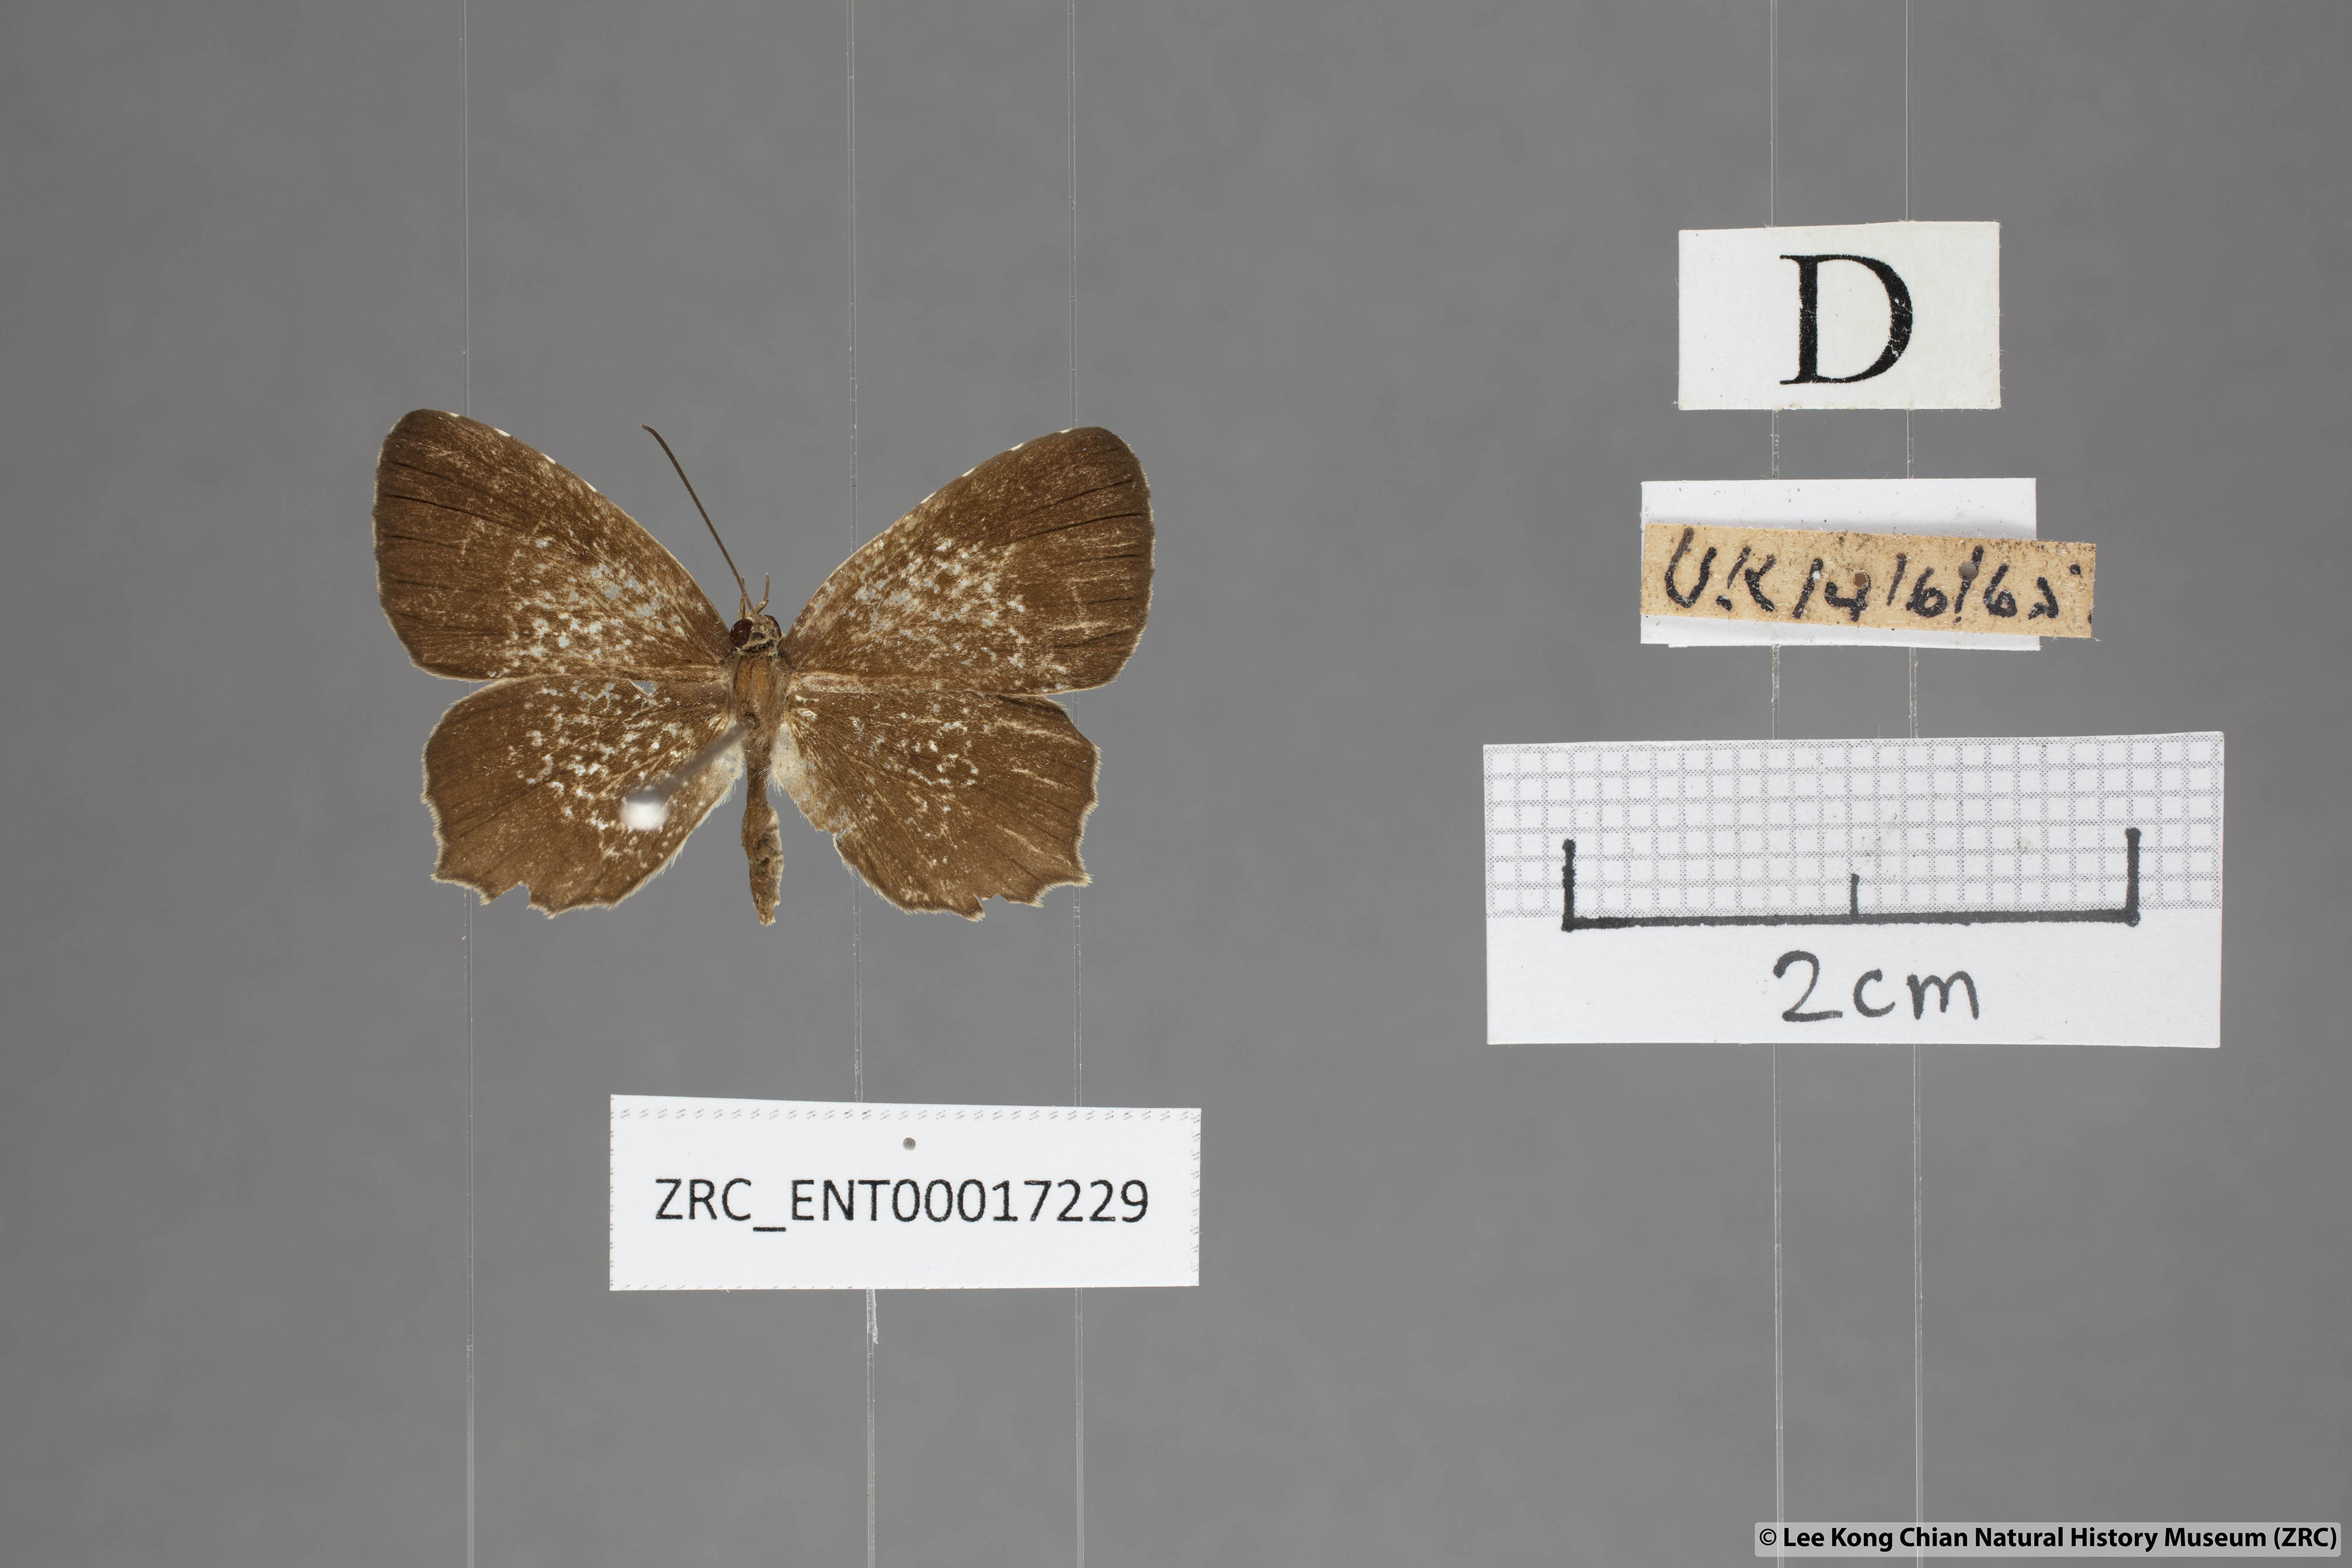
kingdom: Animalia
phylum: Arthropoda
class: Insecta
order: Lepidoptera
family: Lycaenidae
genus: Allotinus
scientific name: Allotinus fabius
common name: Angled darkie
